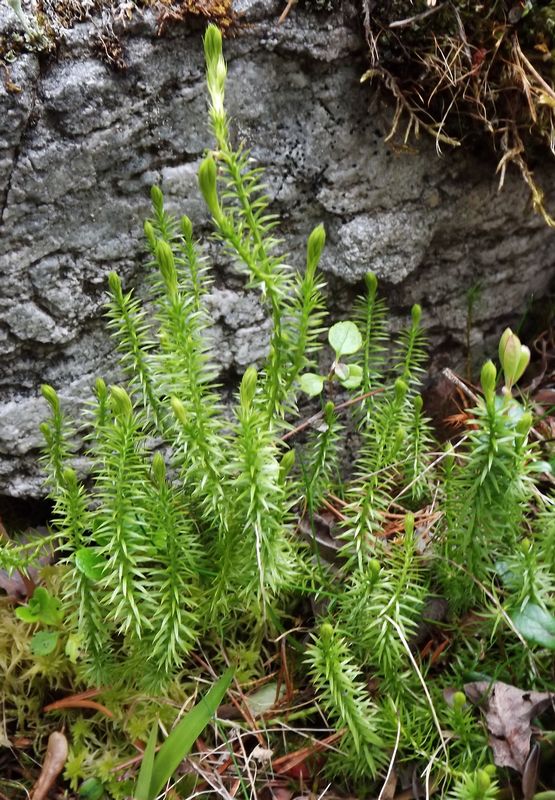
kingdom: Plantae
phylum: Tracheophyta
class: Lycopodiopsida
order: Lycopodiales
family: Lycopodiaceae
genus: Spinulum
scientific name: Spinulum annotinum
